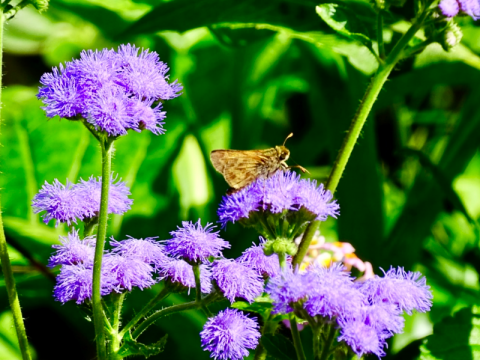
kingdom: Animalia
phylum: Arthropoda
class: Insecta
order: Lepidoptera
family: Hesperiidae
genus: Atalopedes
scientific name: Atalopedes campestris
